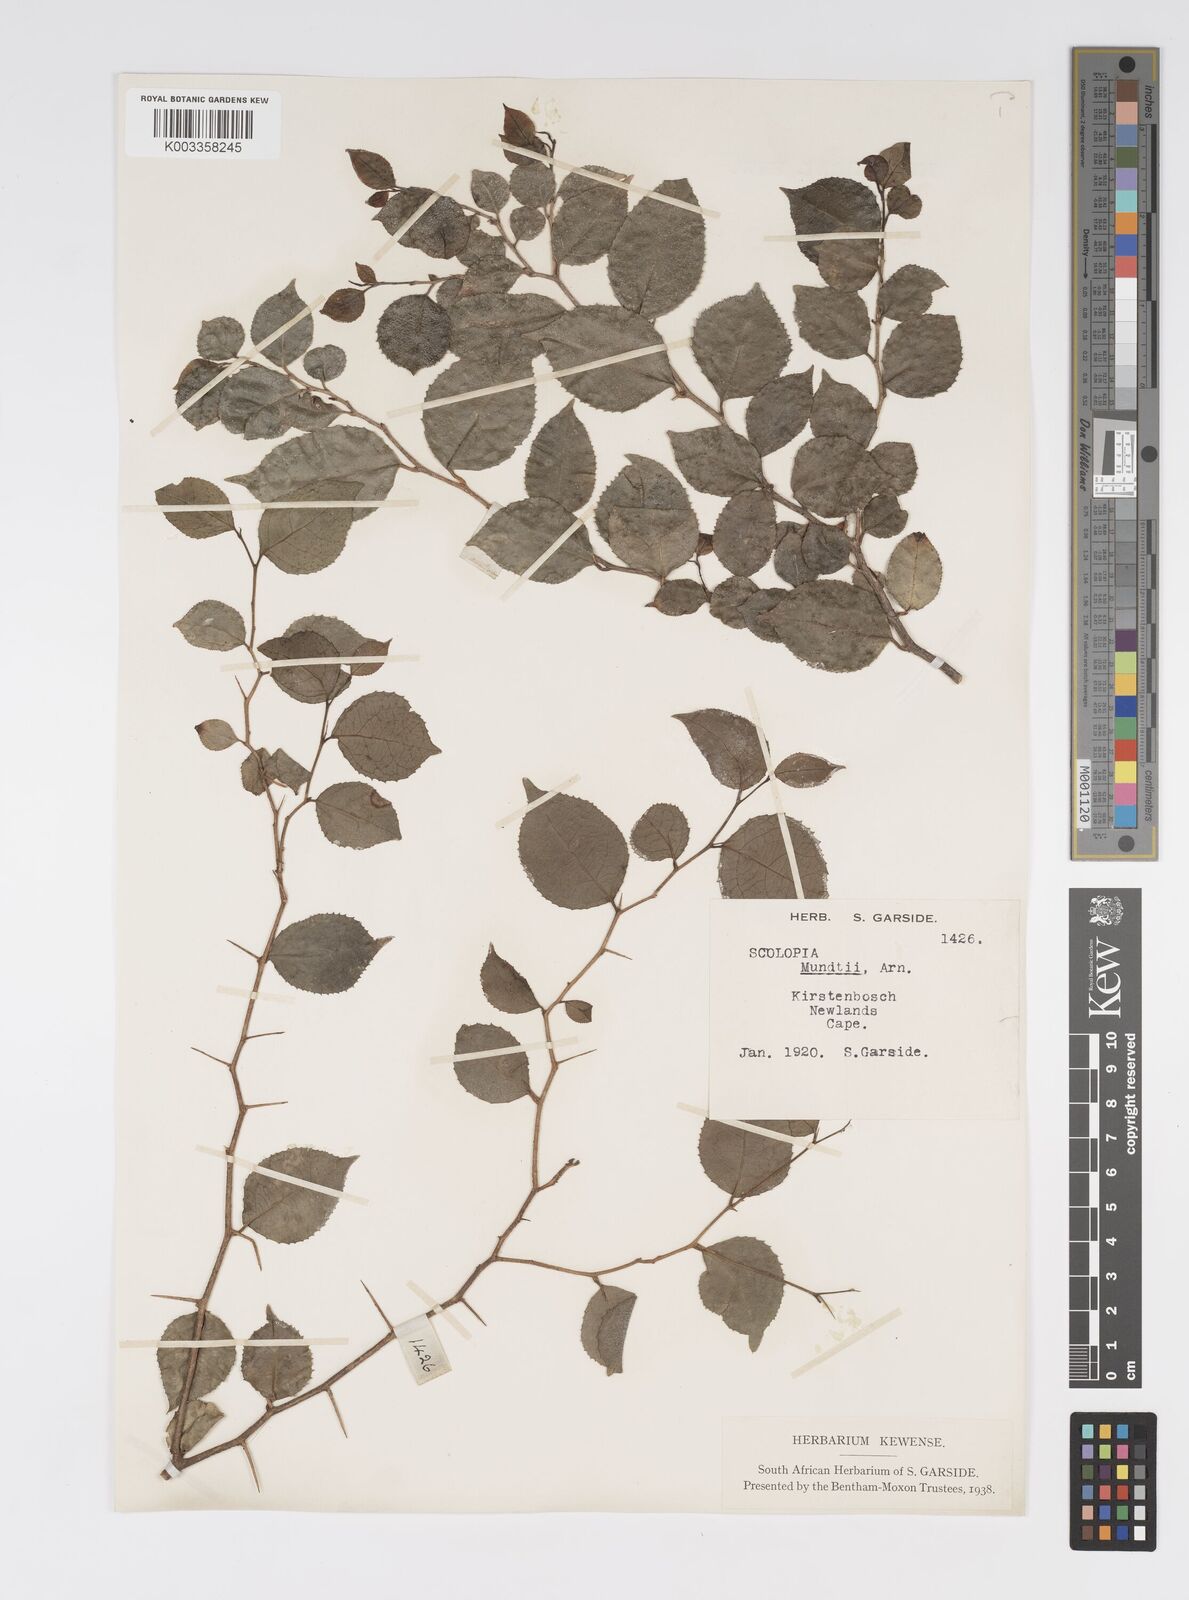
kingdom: Plantae
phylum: Tracheophyta
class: Magnoliopsida
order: Malpighiales
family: Salicaceae
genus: Scolopia
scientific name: Scolopia mundii
